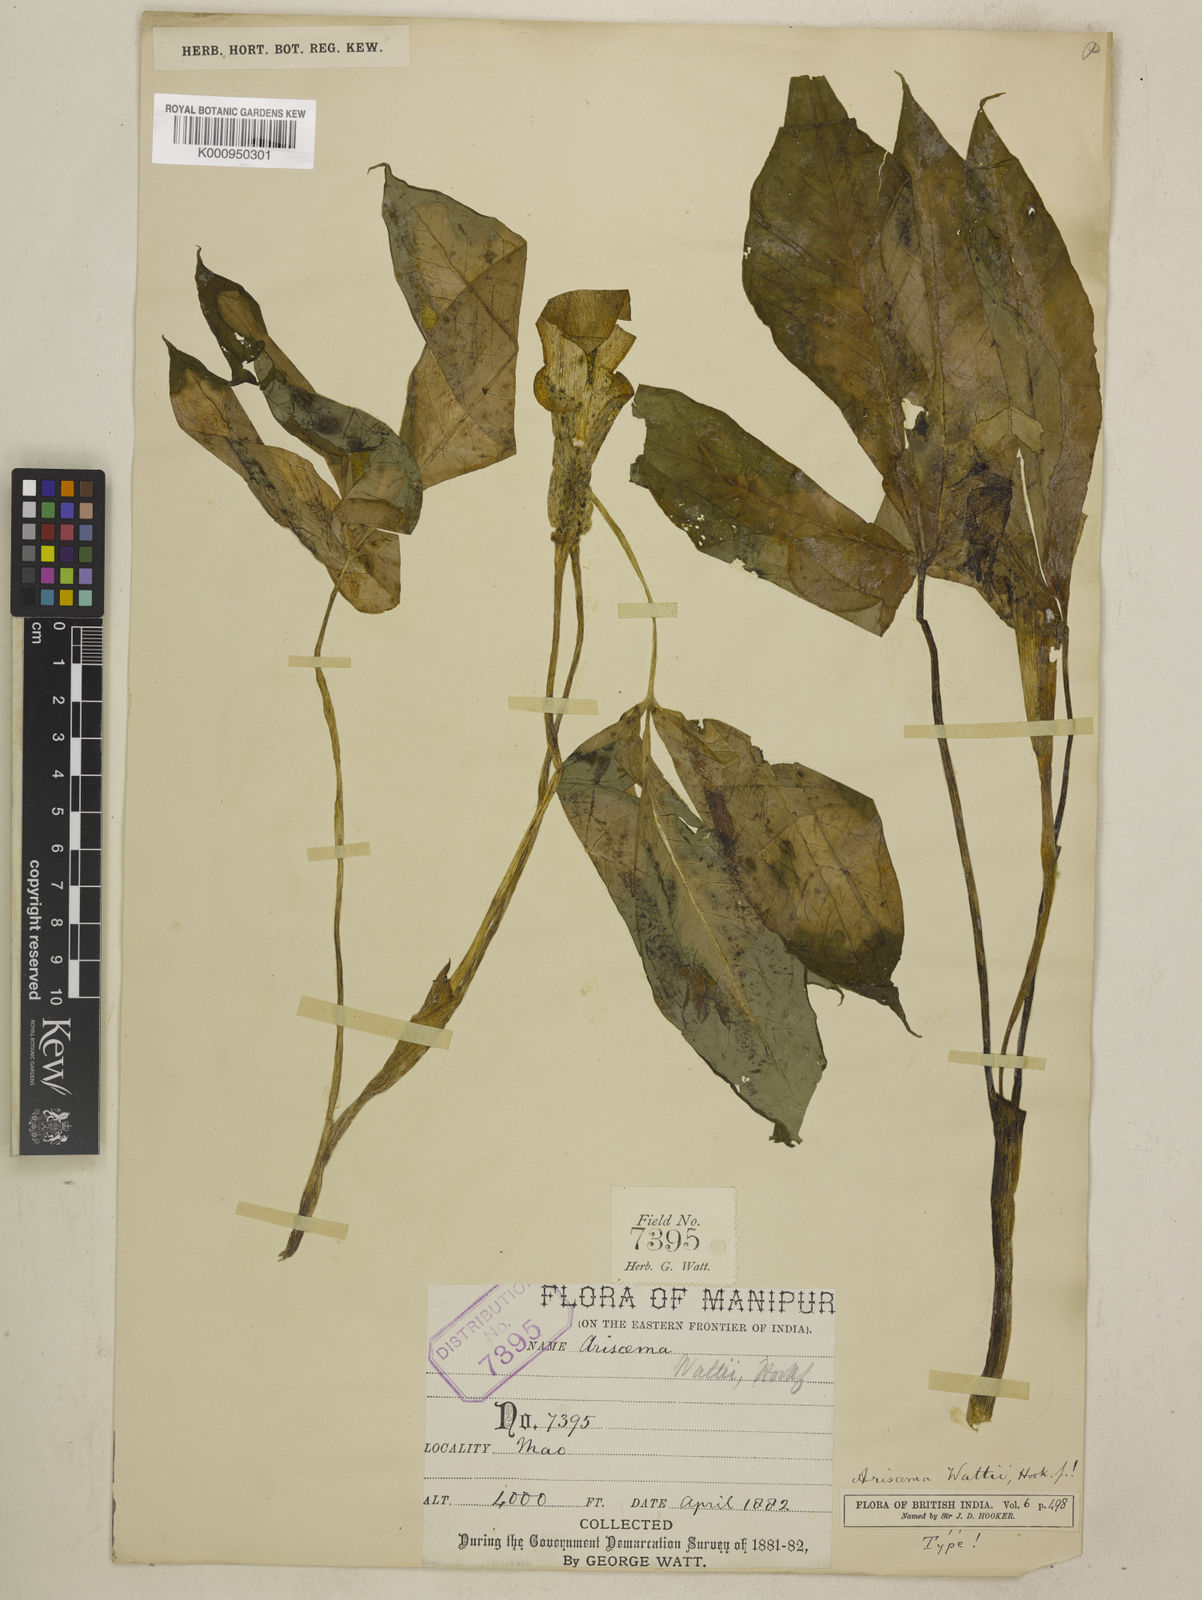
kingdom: Plantae
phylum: Tracheophyta
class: Liliopsida
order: Alismatales
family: Araceae
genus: Arisaema
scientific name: Arisaema wattii
